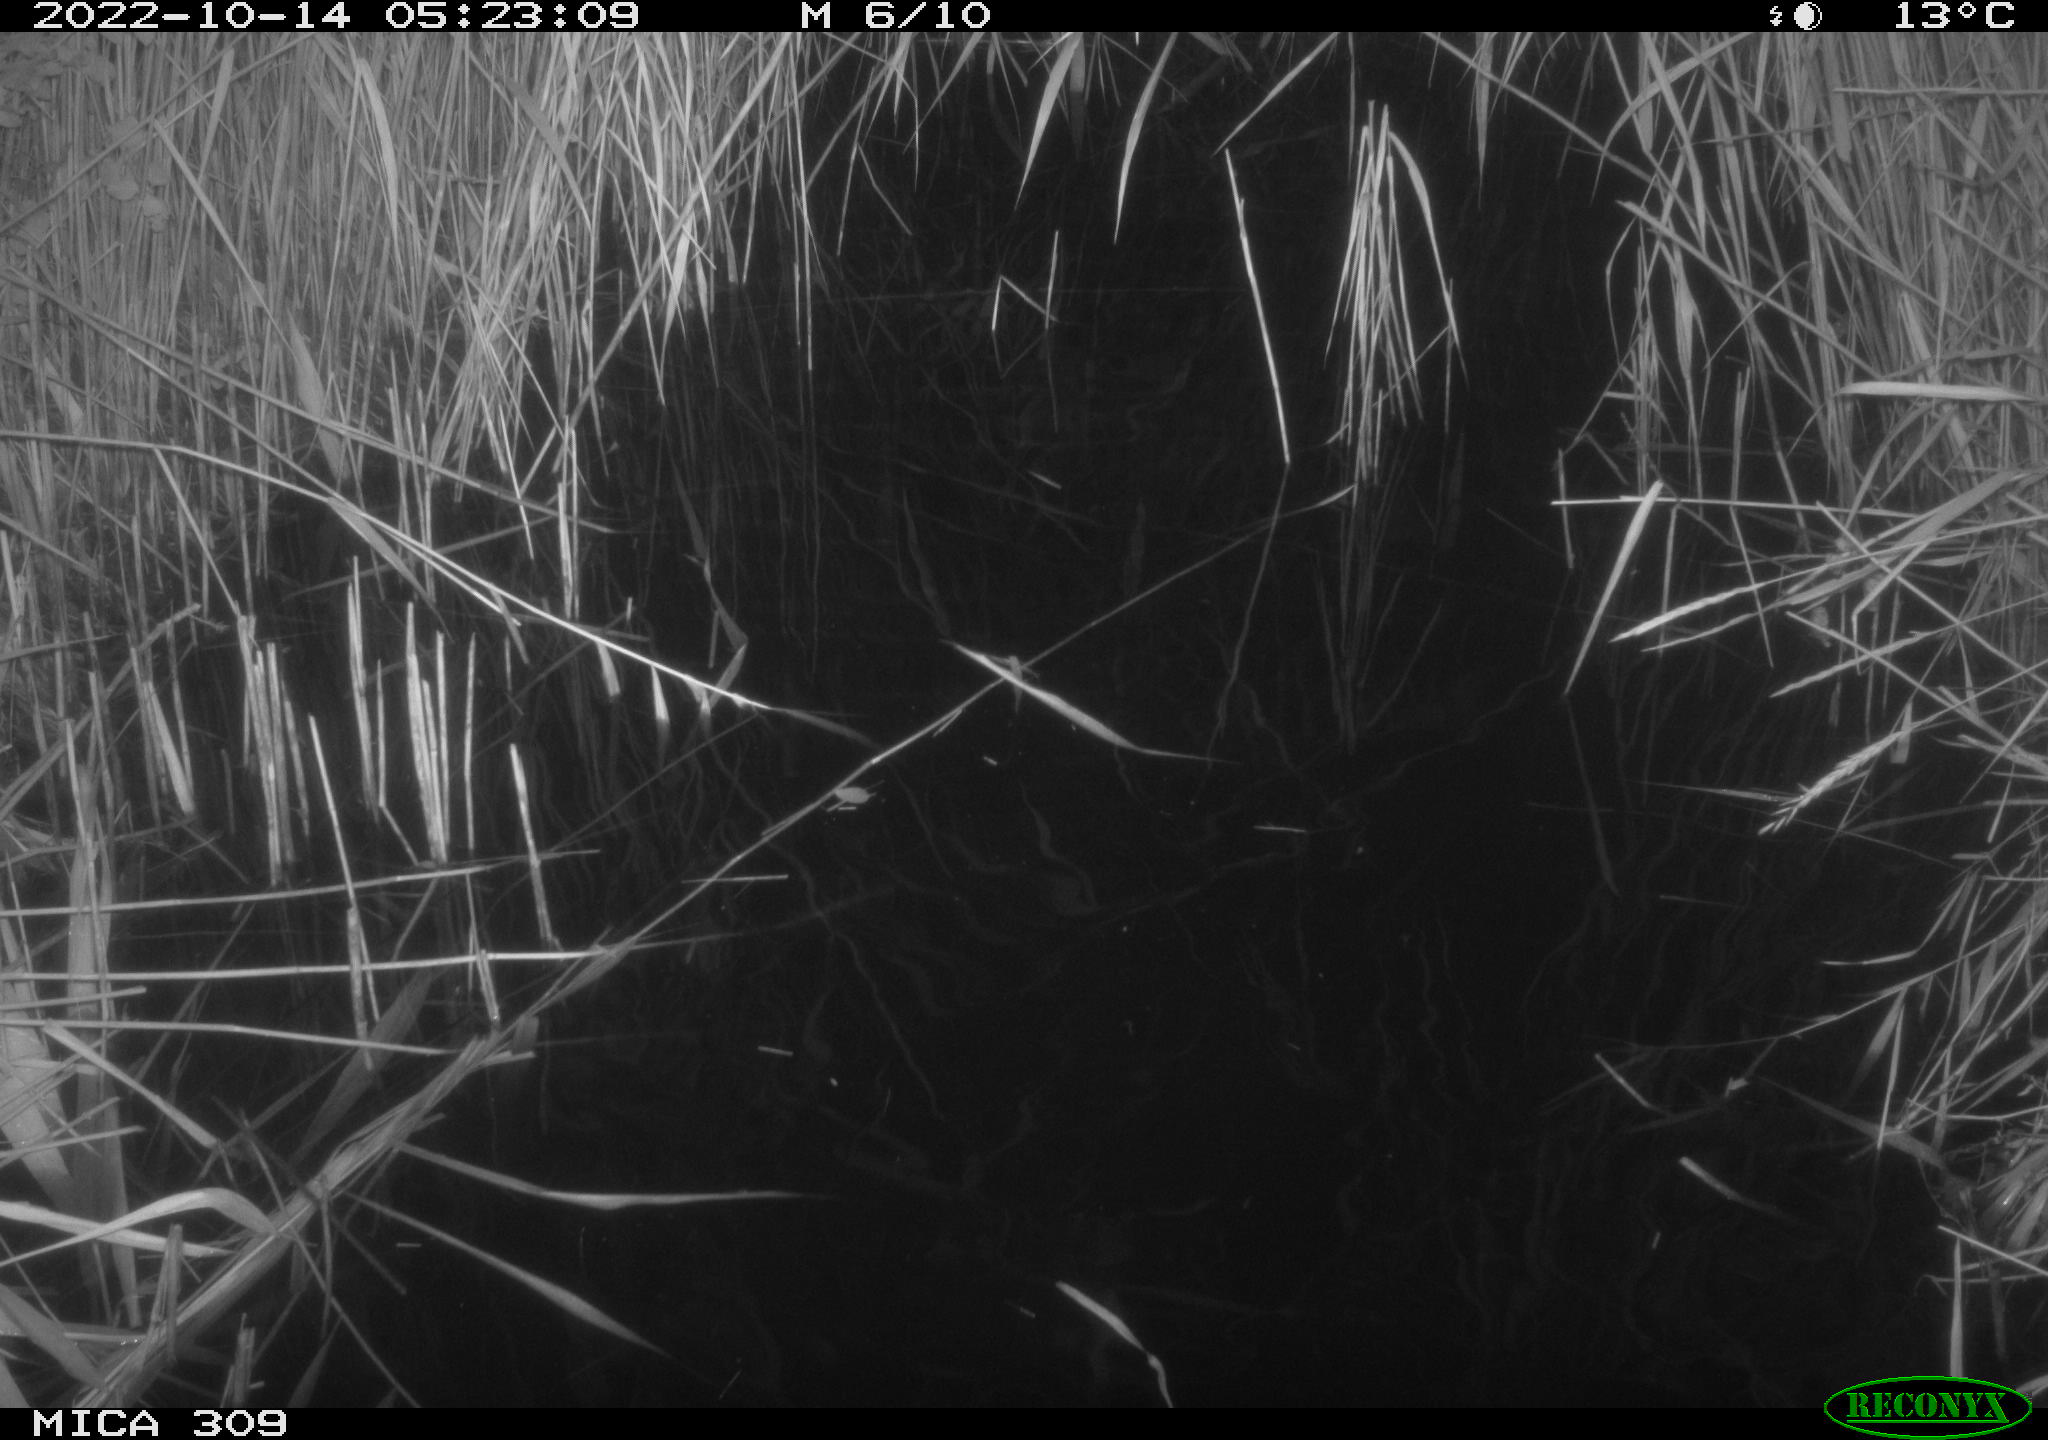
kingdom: Animalia
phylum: Chordata
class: Mammalia
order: Rodentia
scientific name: Rodentia
